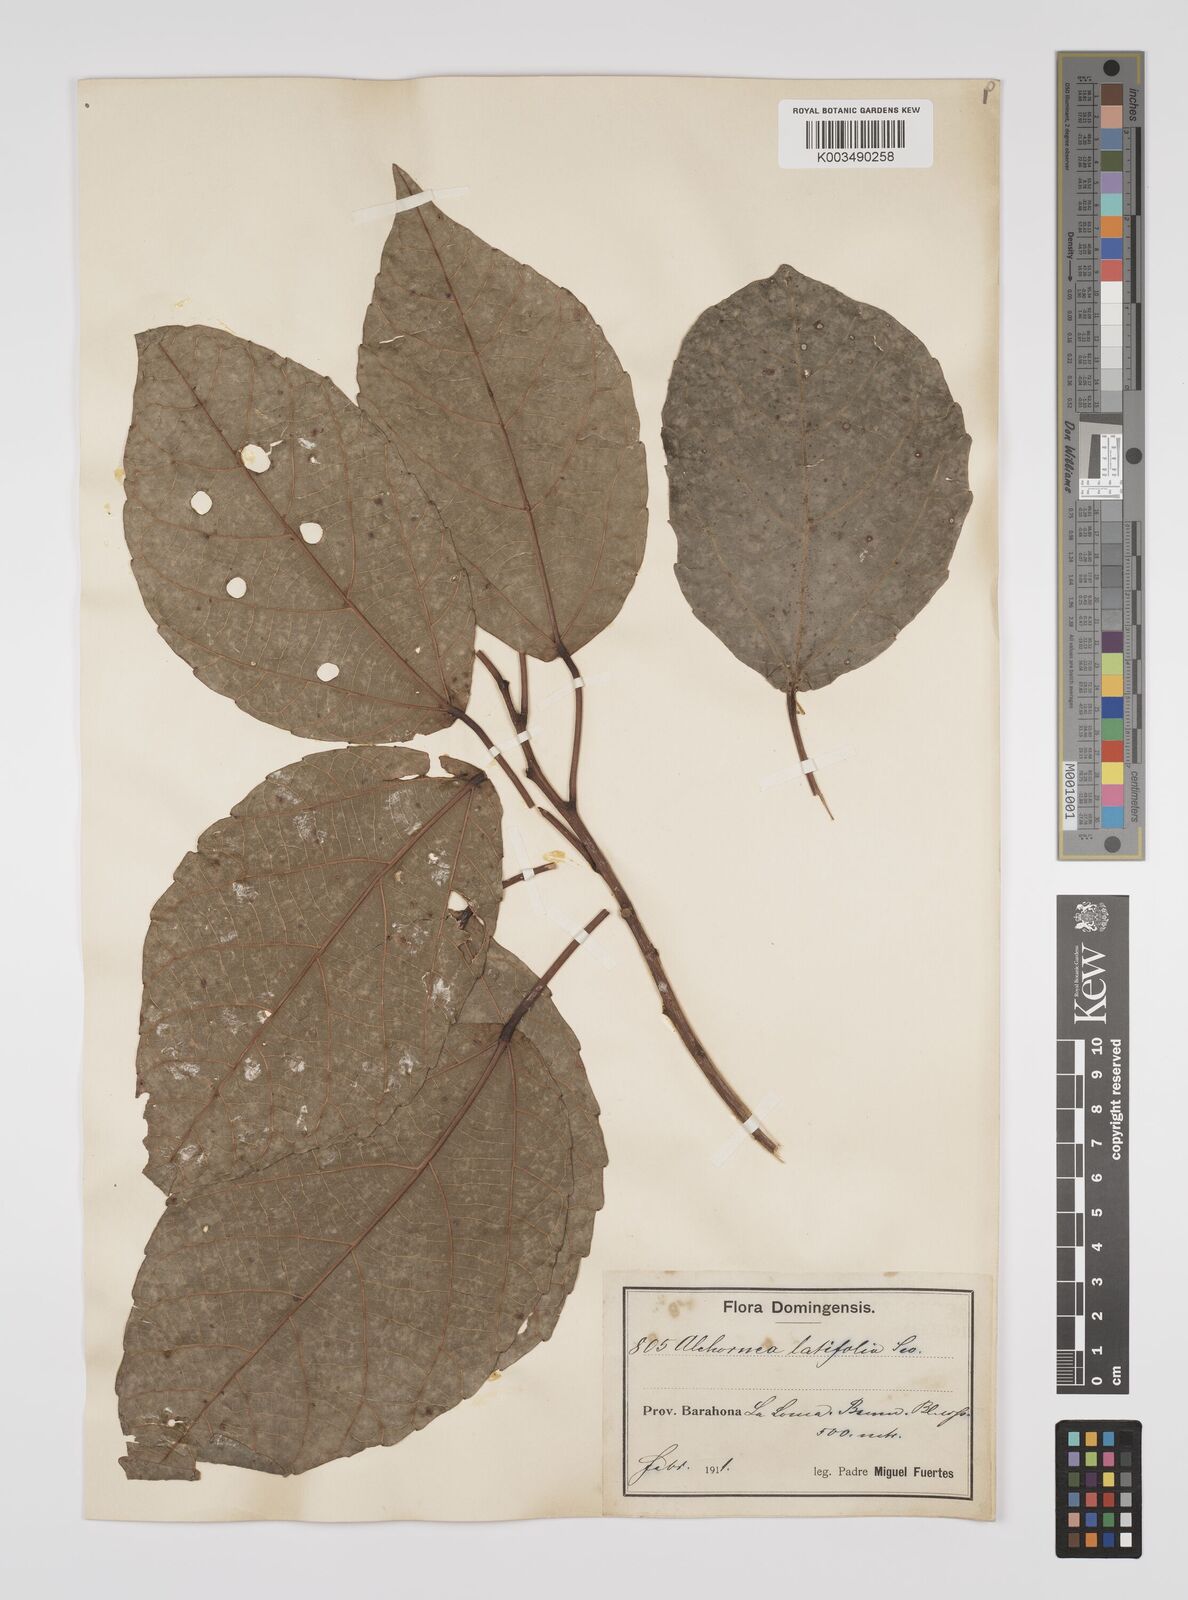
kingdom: Plantae
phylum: Tracheophyta
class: Magnoliopsida
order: Malpighiales
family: Euphorbiaceae
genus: Alchornea
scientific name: Alchornea latifolia
